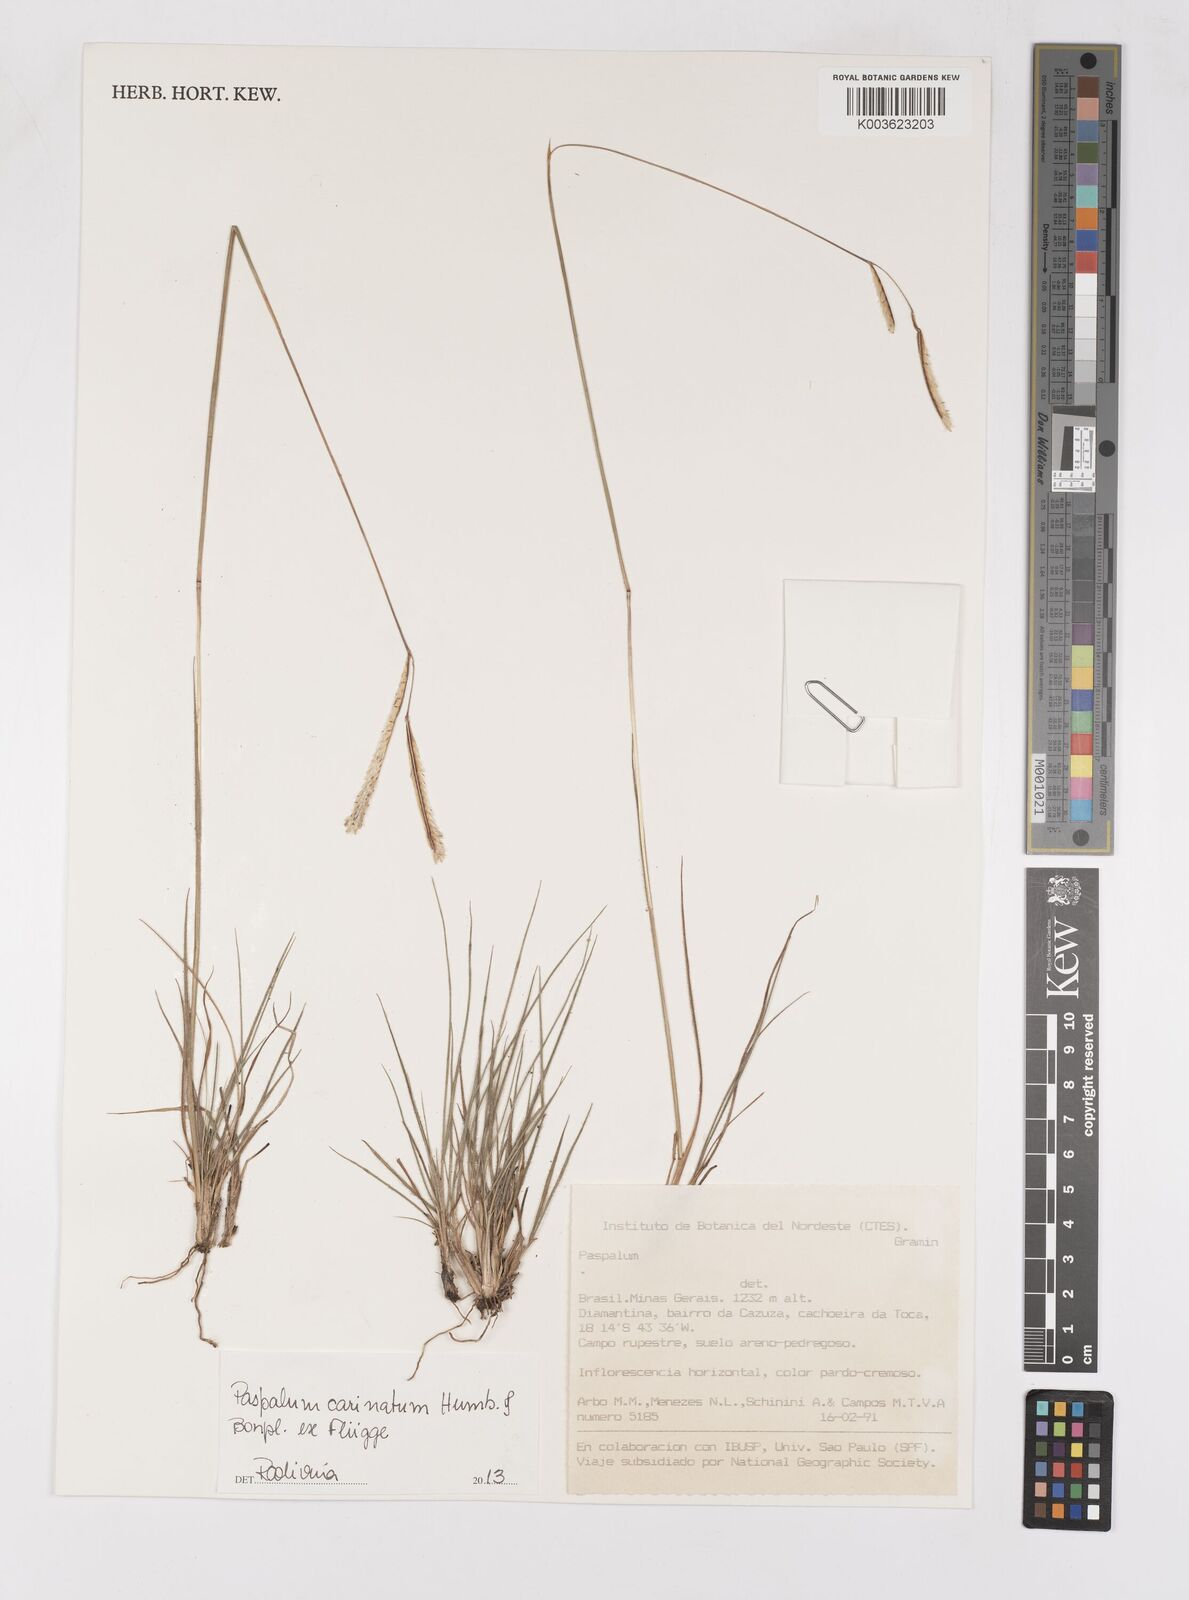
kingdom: Plantae
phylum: Tracheophyta
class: Liliopsida
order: Poales
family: Poaceae
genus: Paspalum
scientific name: Paspalum carinatum
